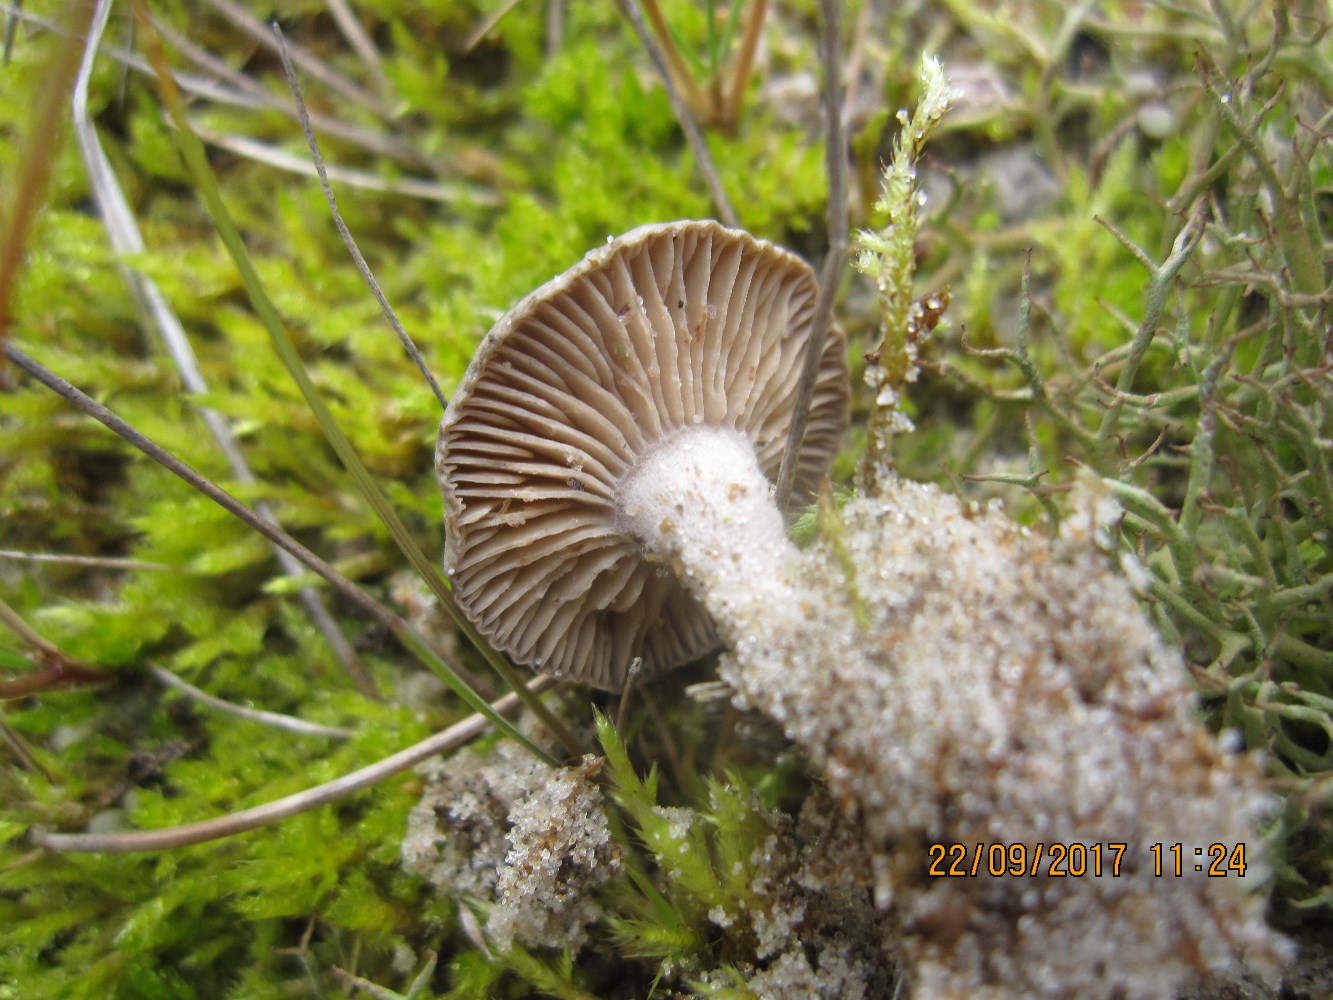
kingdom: Fungi
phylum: Basidiomycota
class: Agaricomycetes
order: Agaricales
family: Tricholomataceae
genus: Lulesia
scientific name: Lulesia
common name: sortnende troldhat
